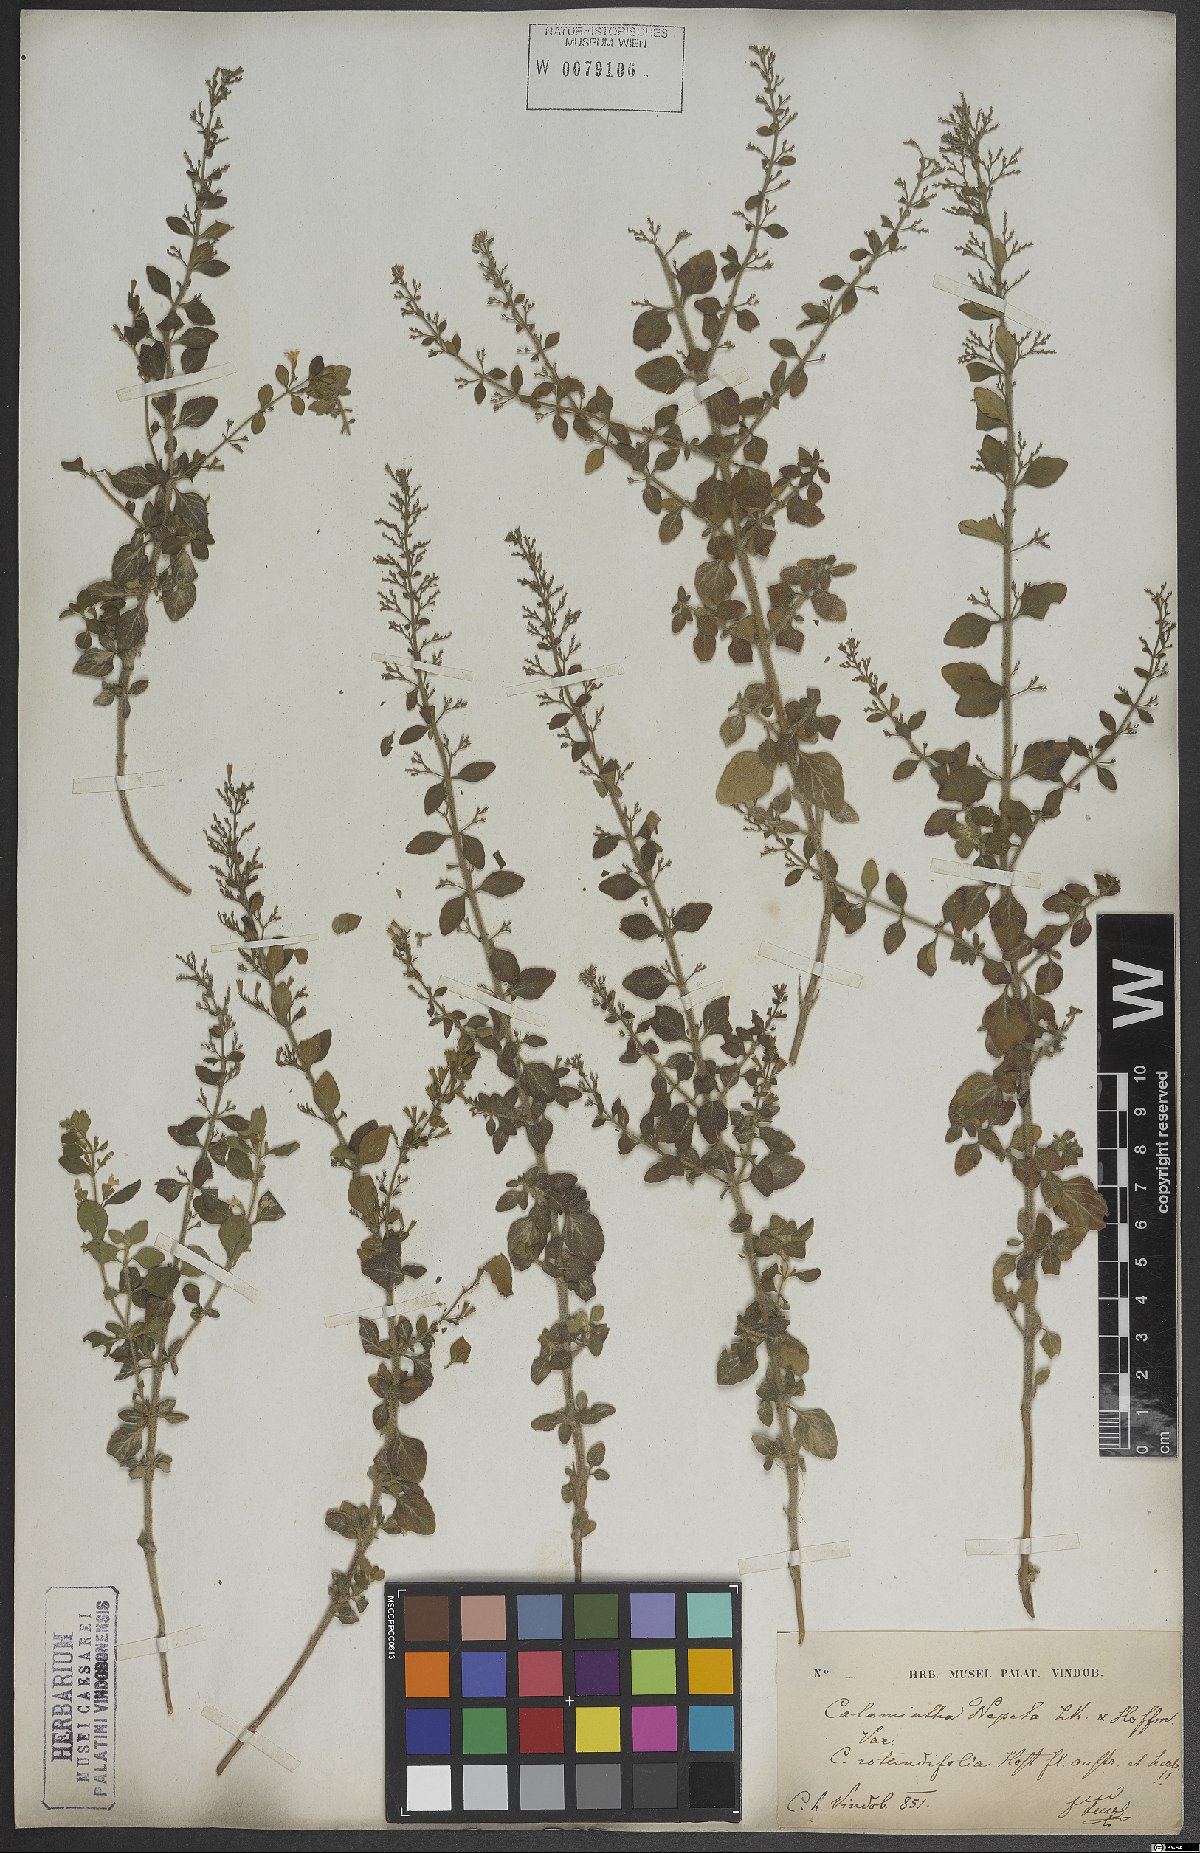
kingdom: Plantae
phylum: Tracheophyta
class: Magnoliopsida
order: Lamiales
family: Lamiaceae
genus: Clinopodium
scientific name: Clinopodium nepeta
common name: Lesser calamint
